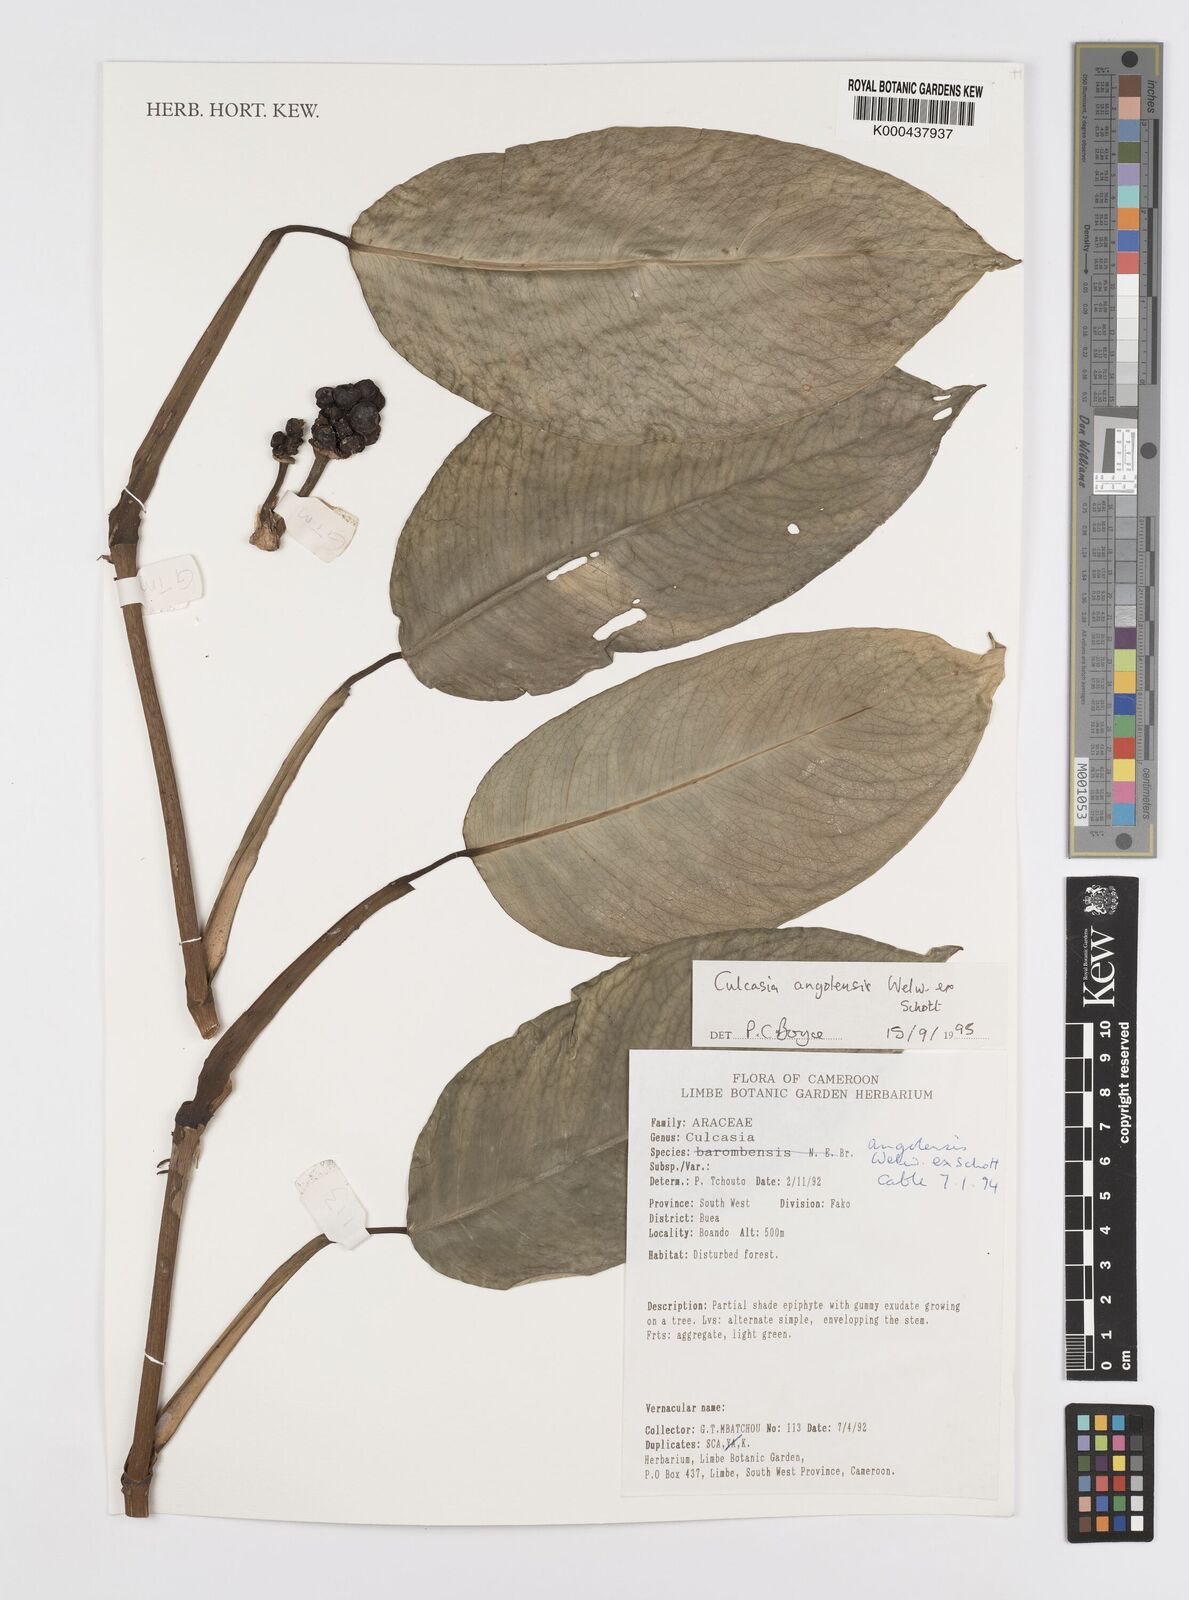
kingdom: Plantae
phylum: Tracheophyta
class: Liliopsida
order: Alismatales
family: Araceae
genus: Culcasia
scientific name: Culcasia angolensis
